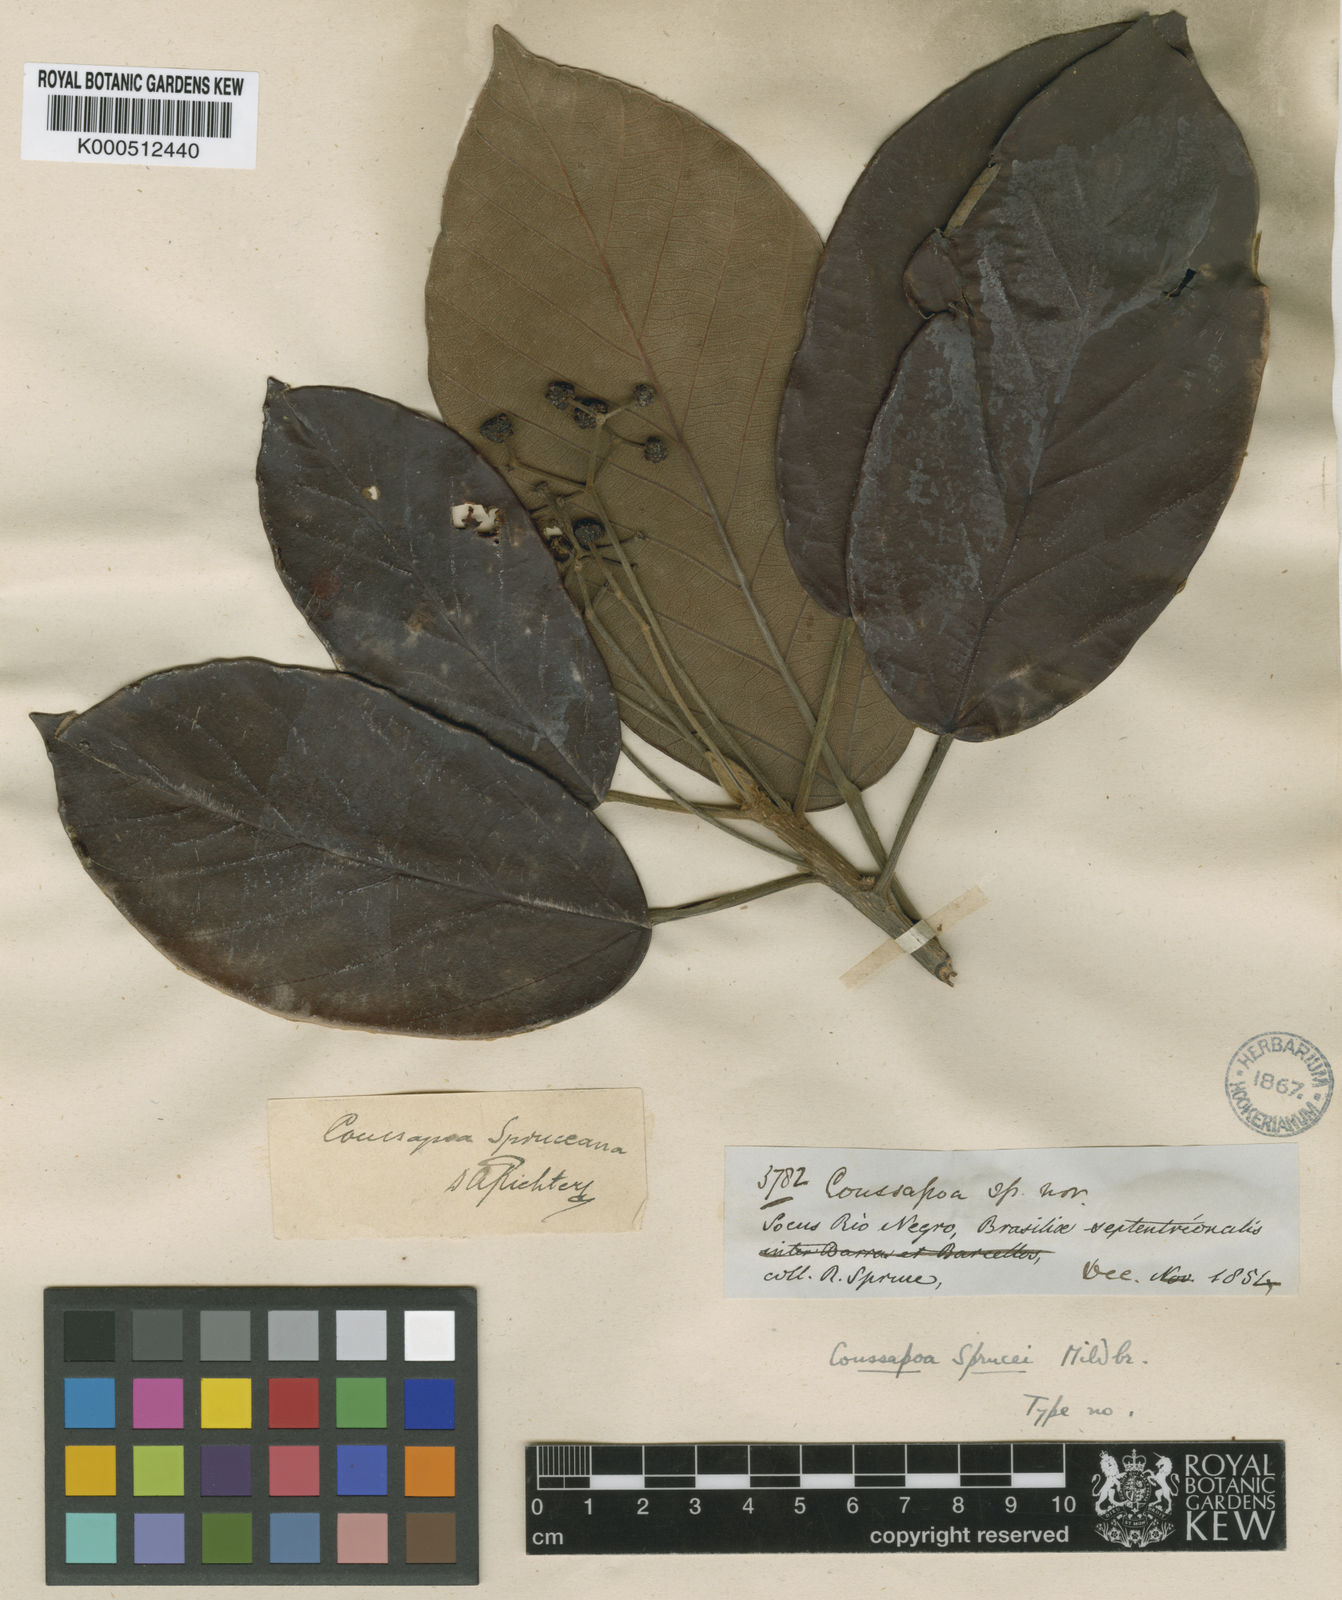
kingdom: Plantae
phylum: Tracheophyta
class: Magnoliopsida
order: Rosales
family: Urticaceae
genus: Coussapoa
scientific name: Coussapoa sprucei
